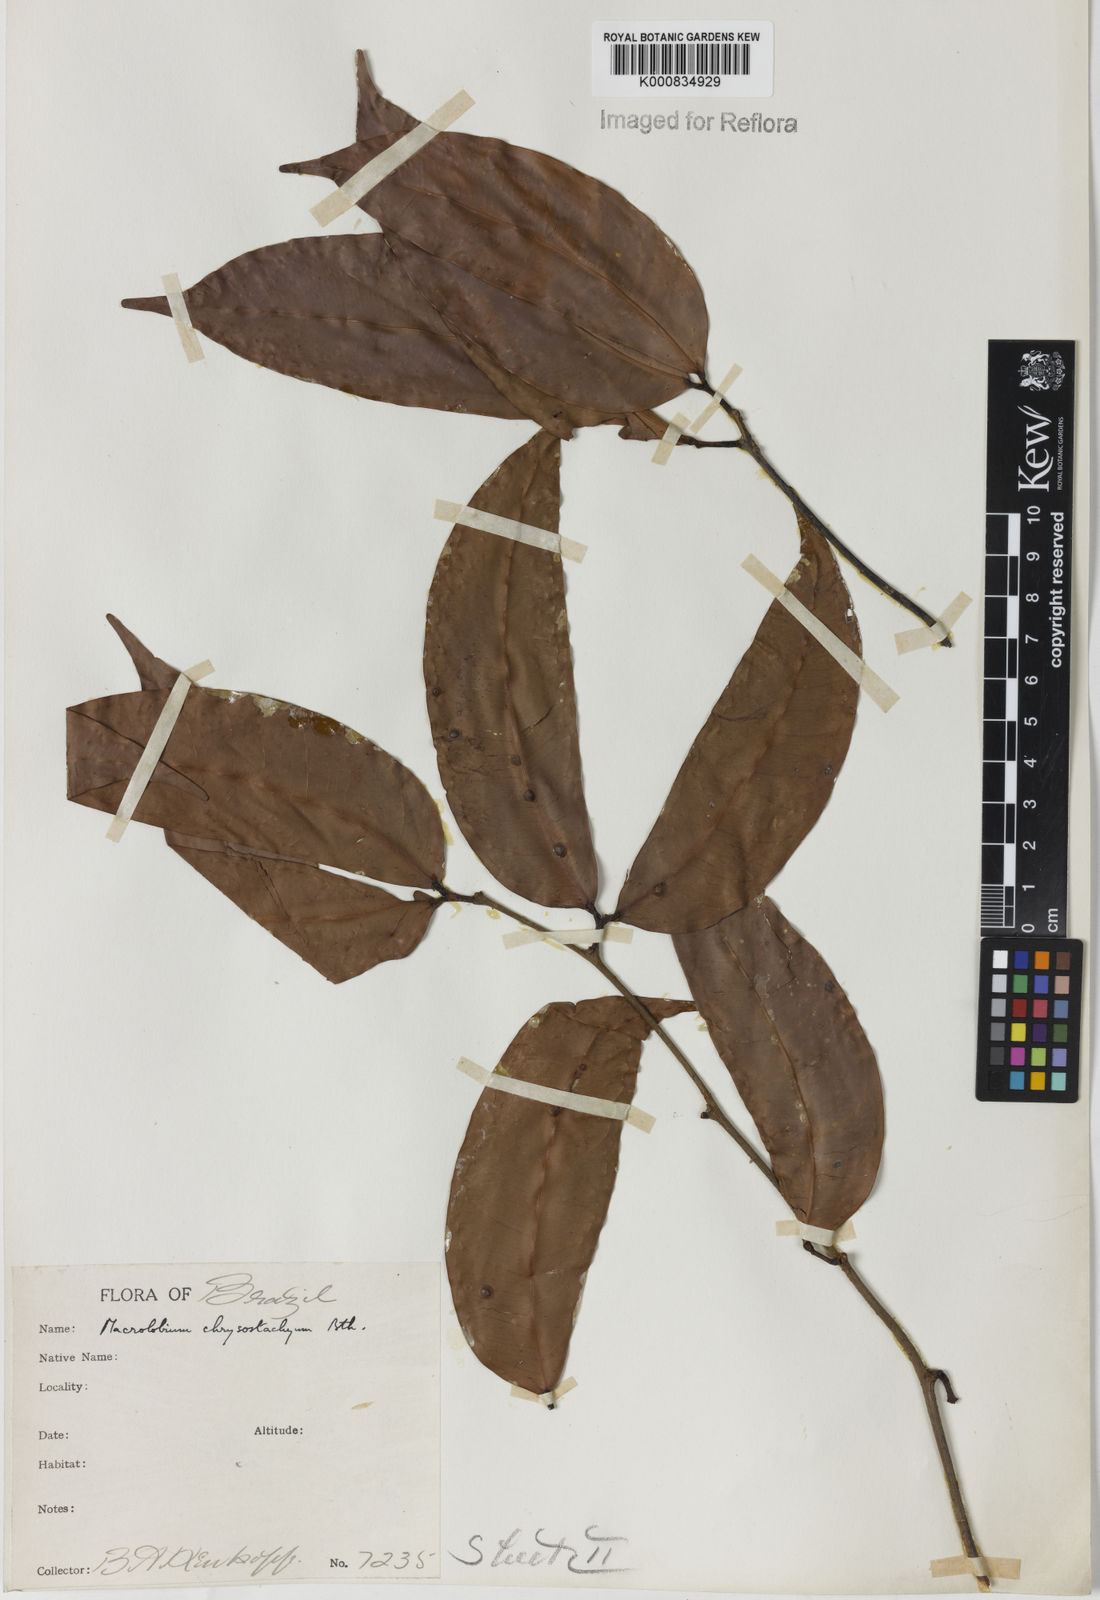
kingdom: Plantae
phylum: Tracheophyta
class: Magnoliopsida
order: Fabales
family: Fabaceae
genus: Macrolobium
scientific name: Macrolobium angustifolium
